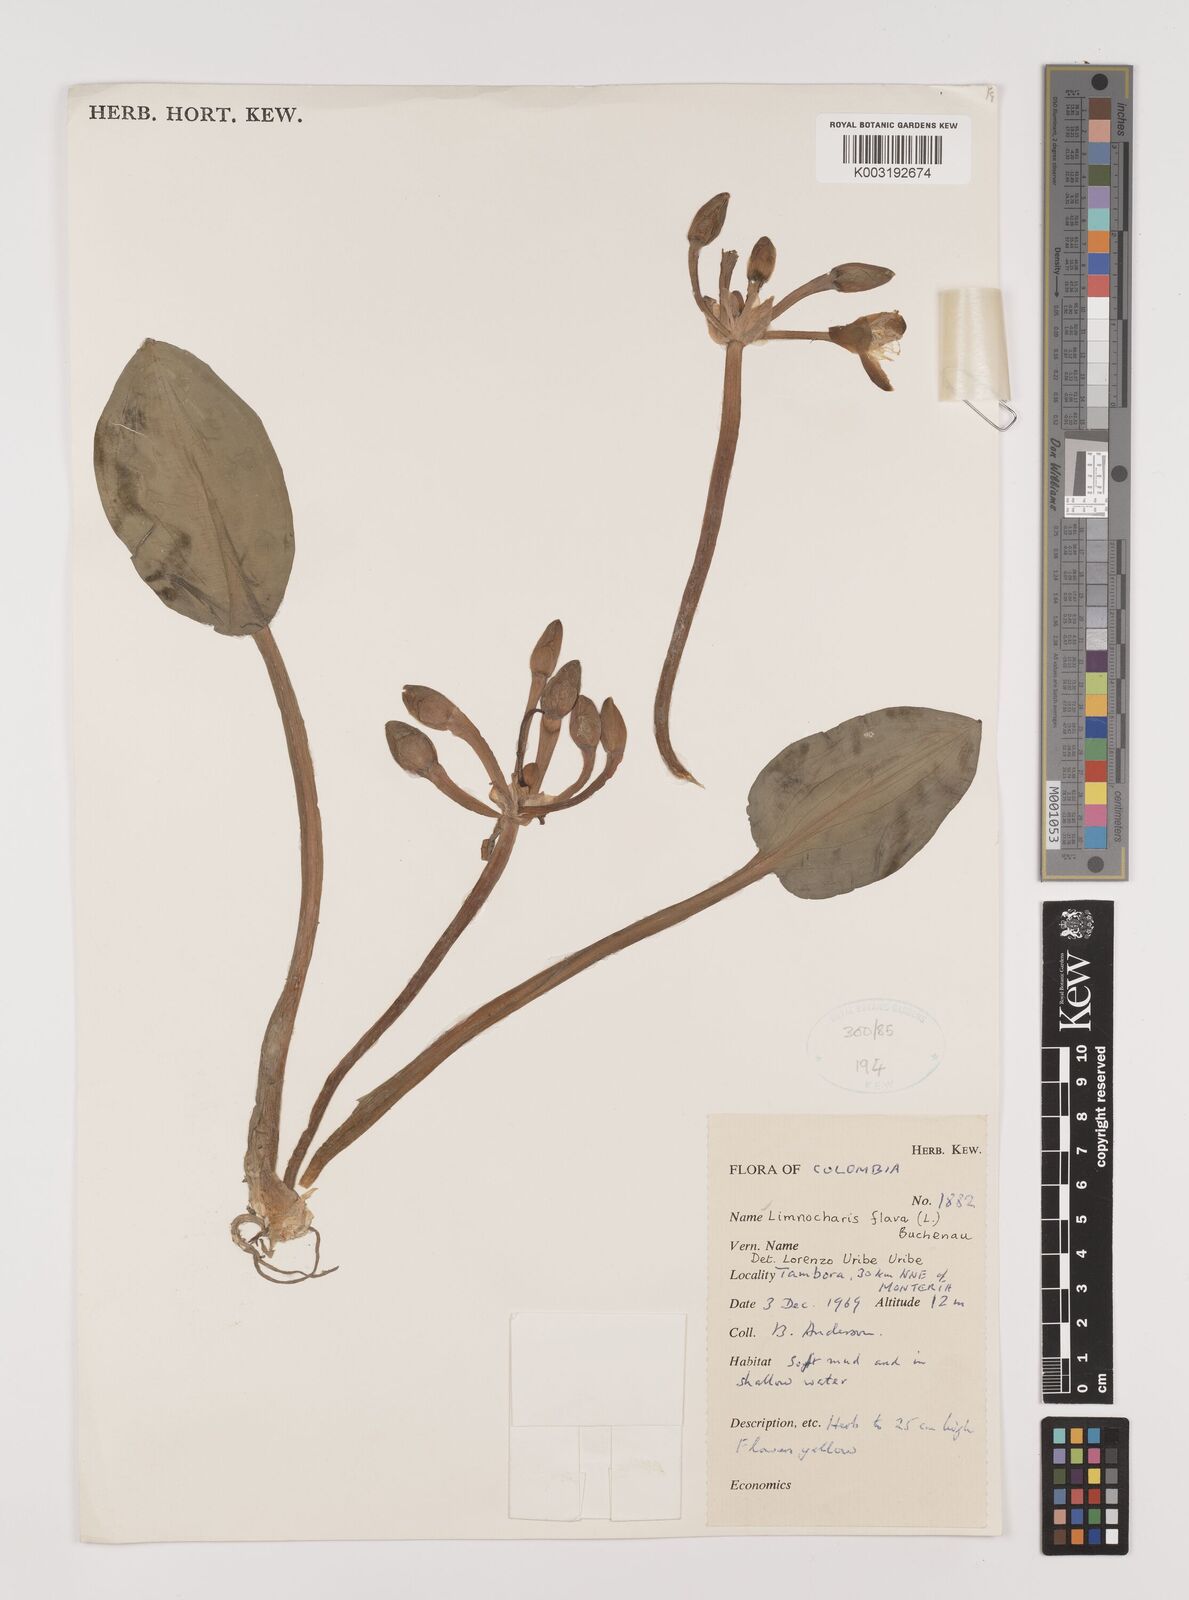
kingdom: Plantae
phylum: Tracheophyta
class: Liliopsida
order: Alismatales
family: Alismataceae
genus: Limnocharis
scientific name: Limnocharis flava
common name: Sawah-flower-rush
